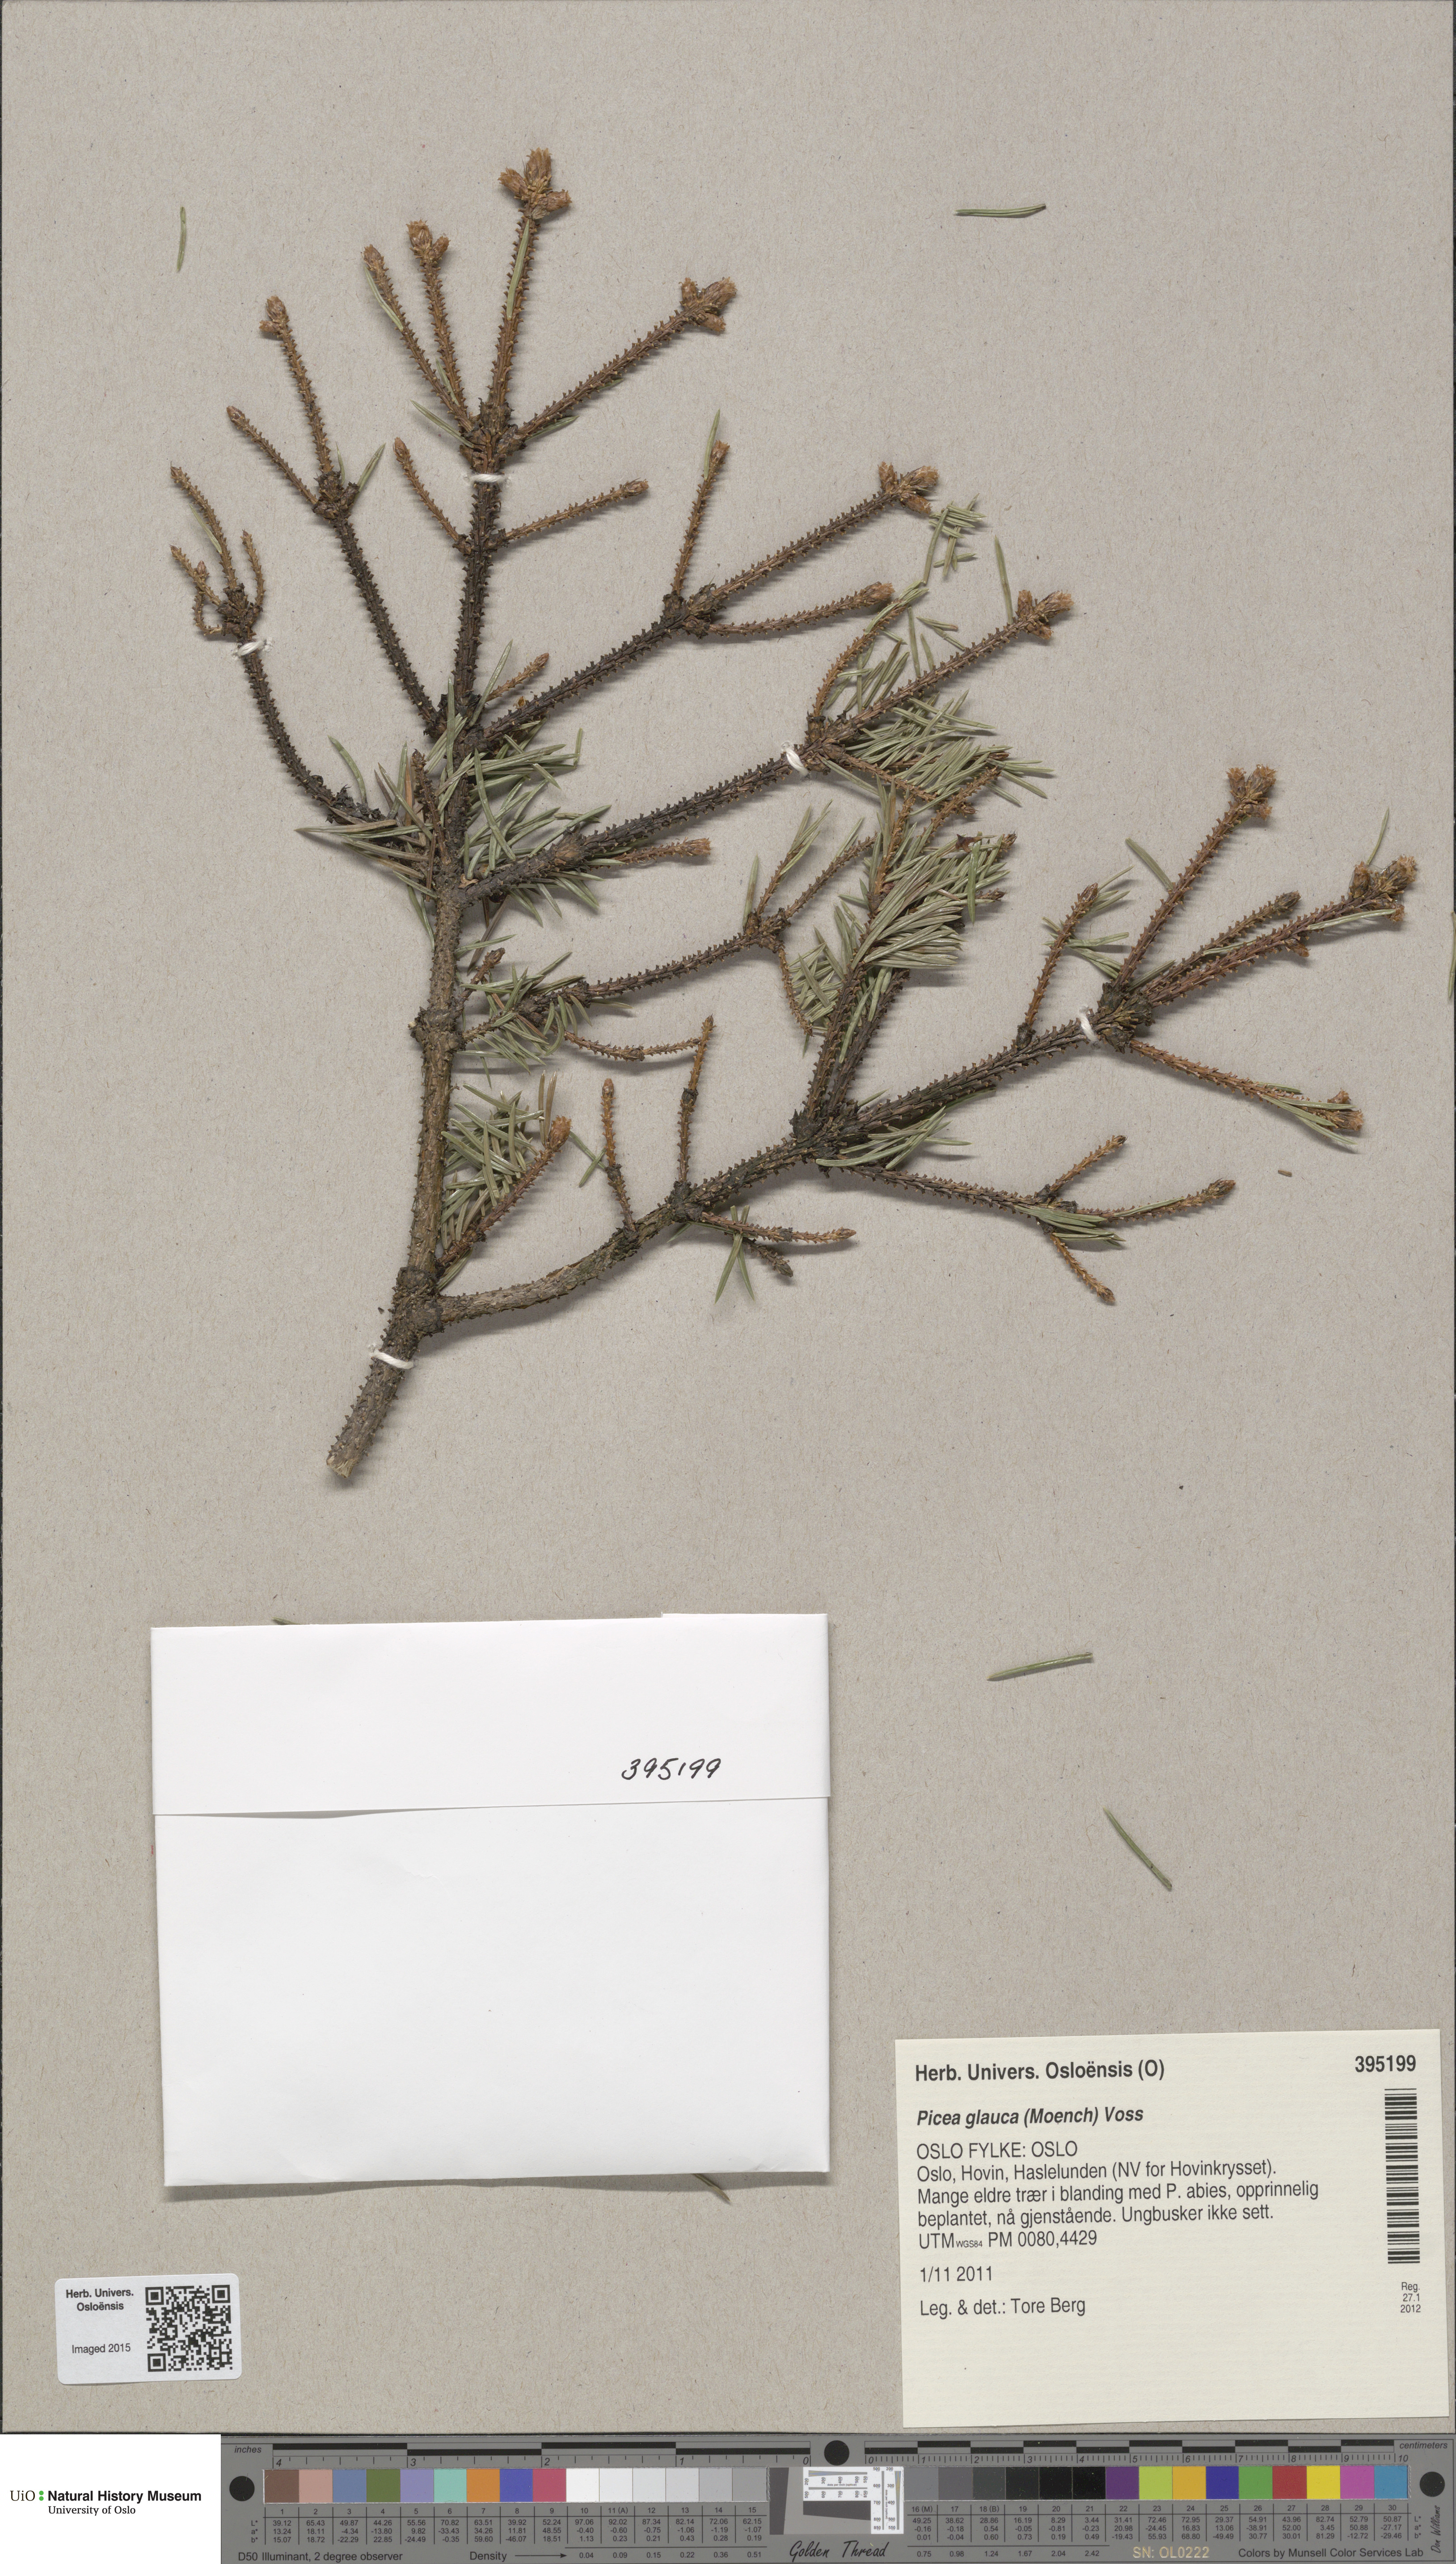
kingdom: Plantae
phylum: Tracheophyta
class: Pinopsida
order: Pinales
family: Pinaceae
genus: Picea
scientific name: Picea glauca
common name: White spruce
